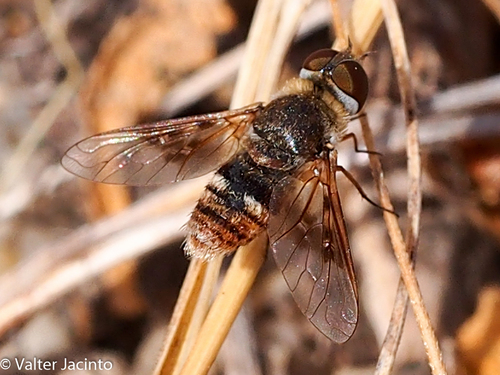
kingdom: Animalia
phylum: Arthropoda
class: Insecta
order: Diptera
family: Bombyliidae
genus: Thyridanthrax
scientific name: Thyridanthrax elegans
